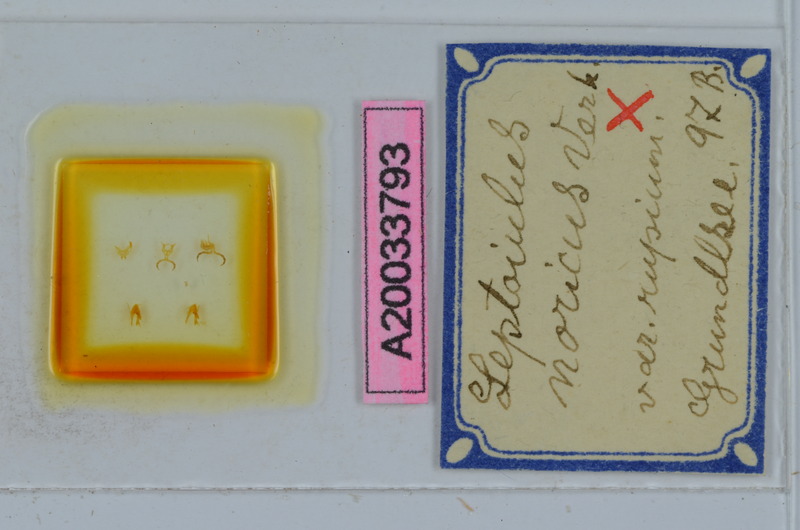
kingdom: Animalia
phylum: Arthropoda
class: Diplopoda
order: Julida
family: Julidae
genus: Leptoiulus
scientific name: Leptoiulus noricus
